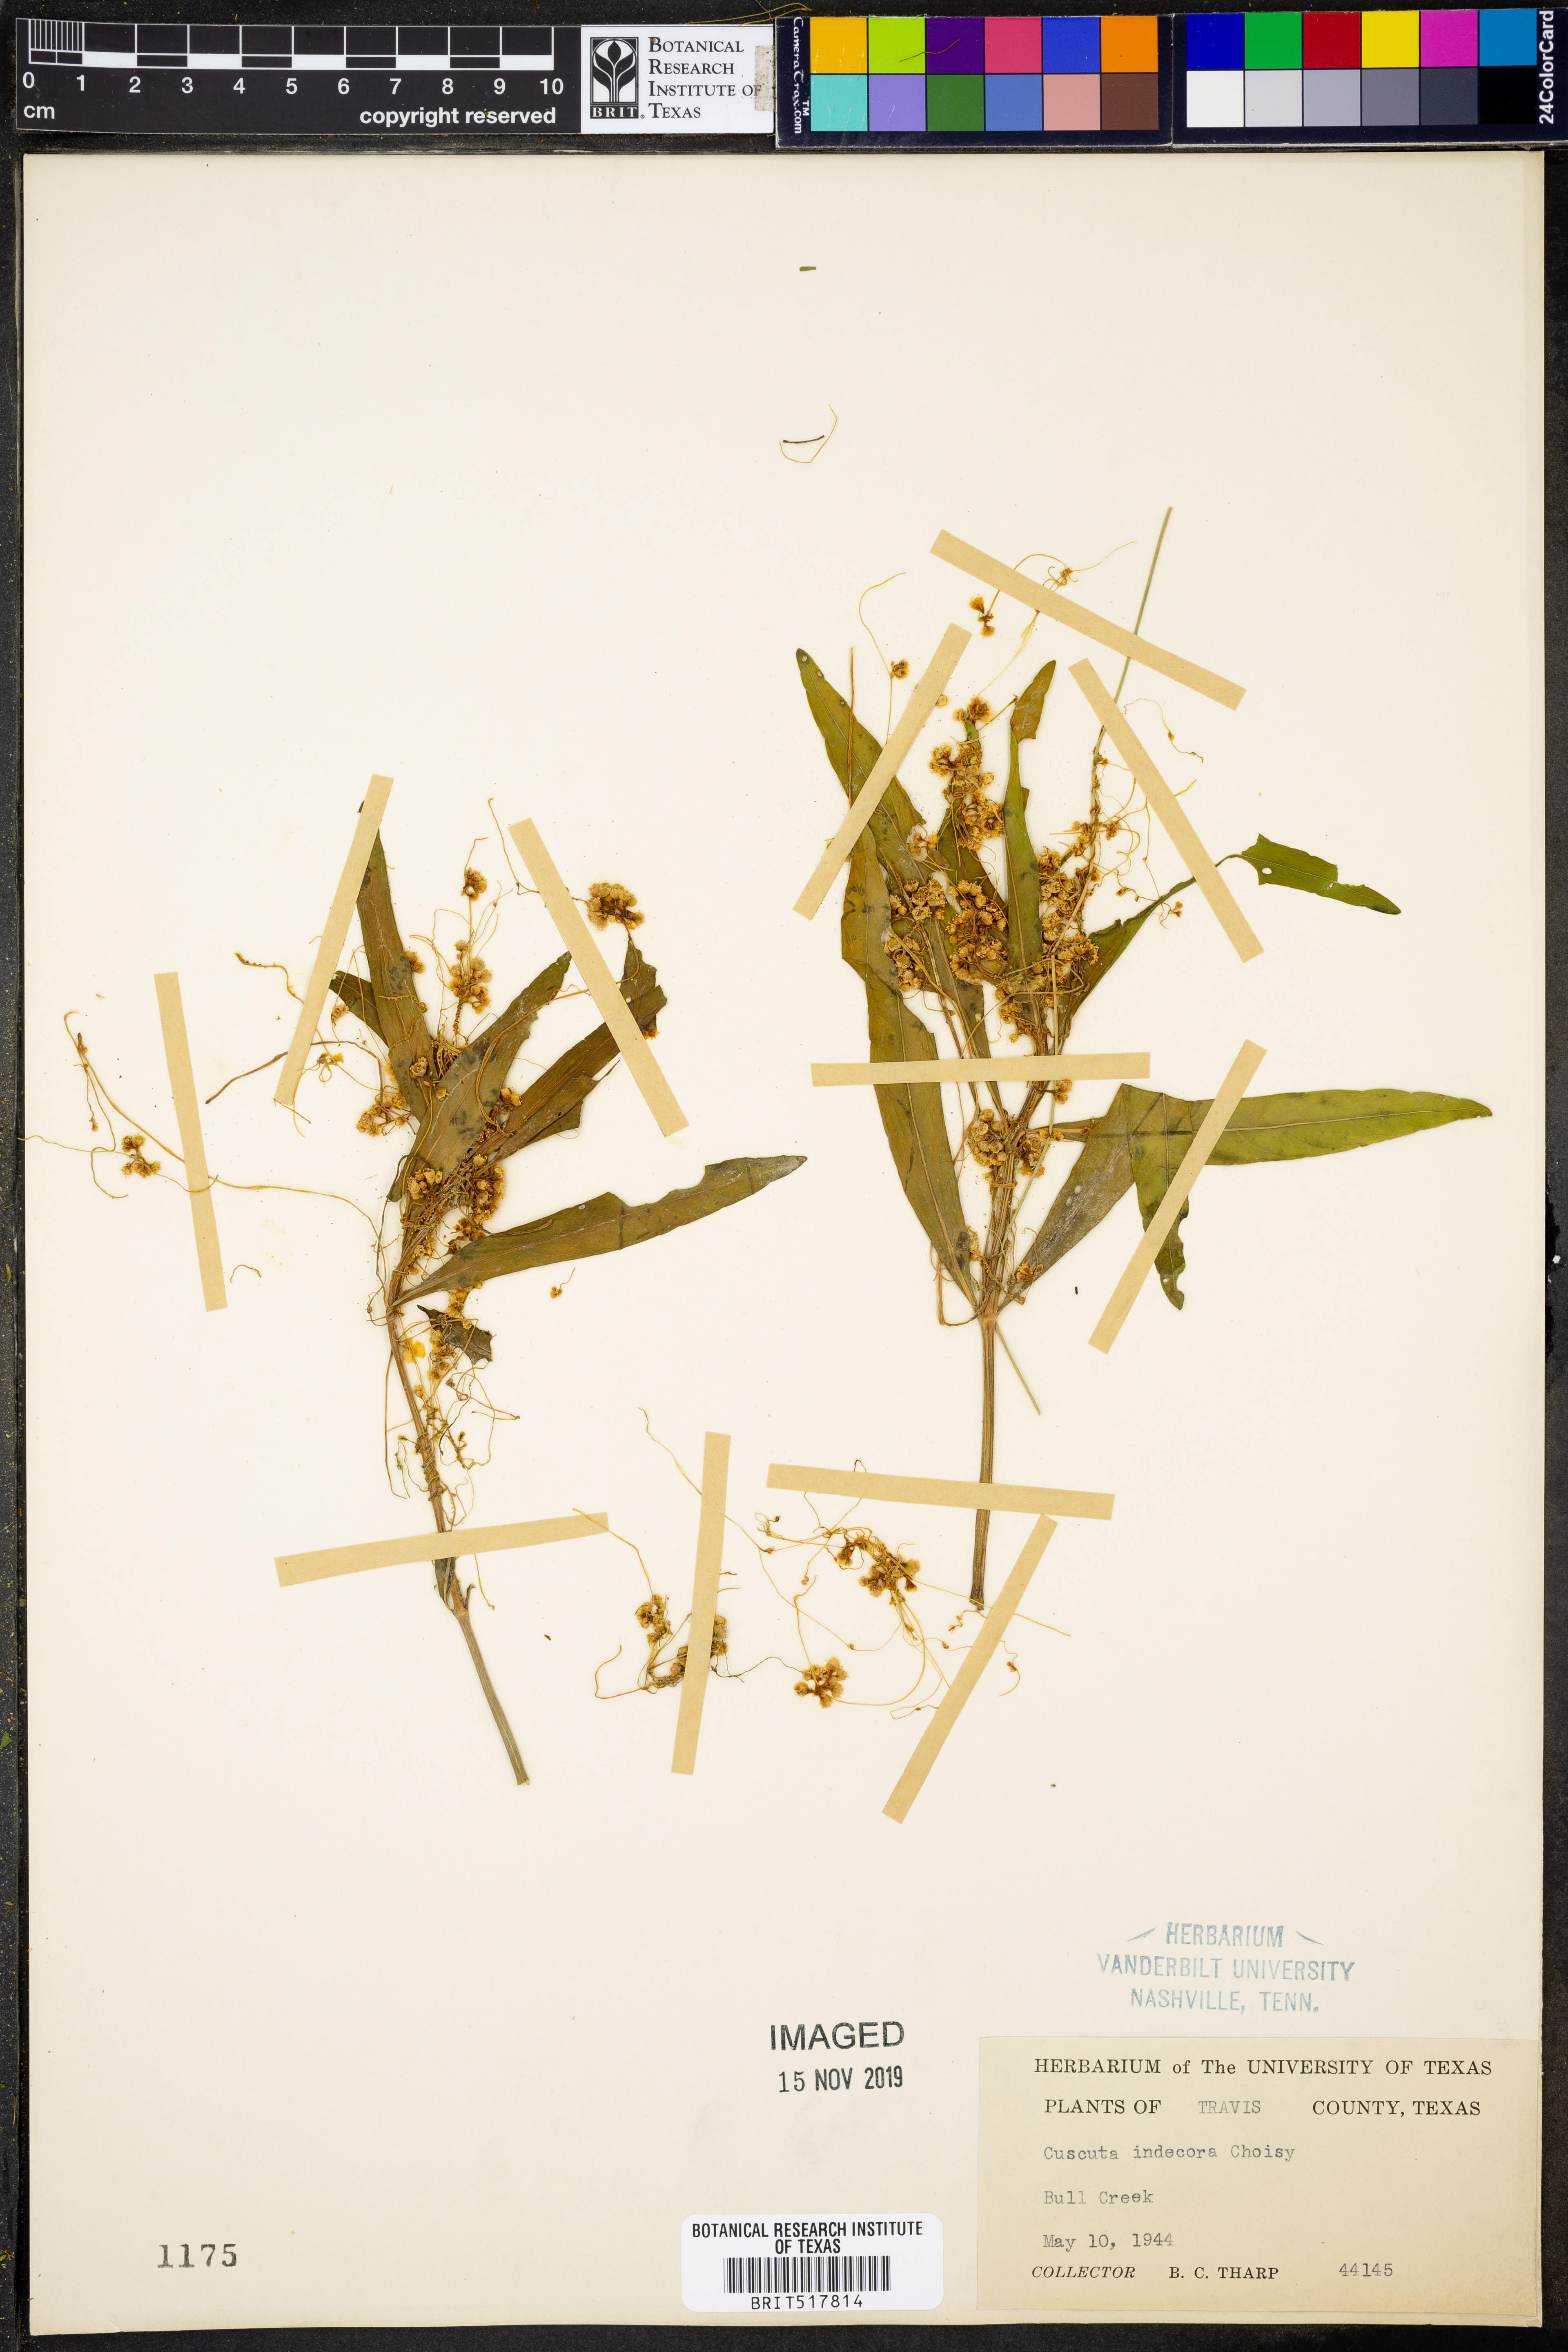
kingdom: Plantae
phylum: Tracheophyta
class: Magnoliopsida
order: Solanales
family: Convolvulaceae
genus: Cuscuta
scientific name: Cuscuta indecora
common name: Large-seed dodder
